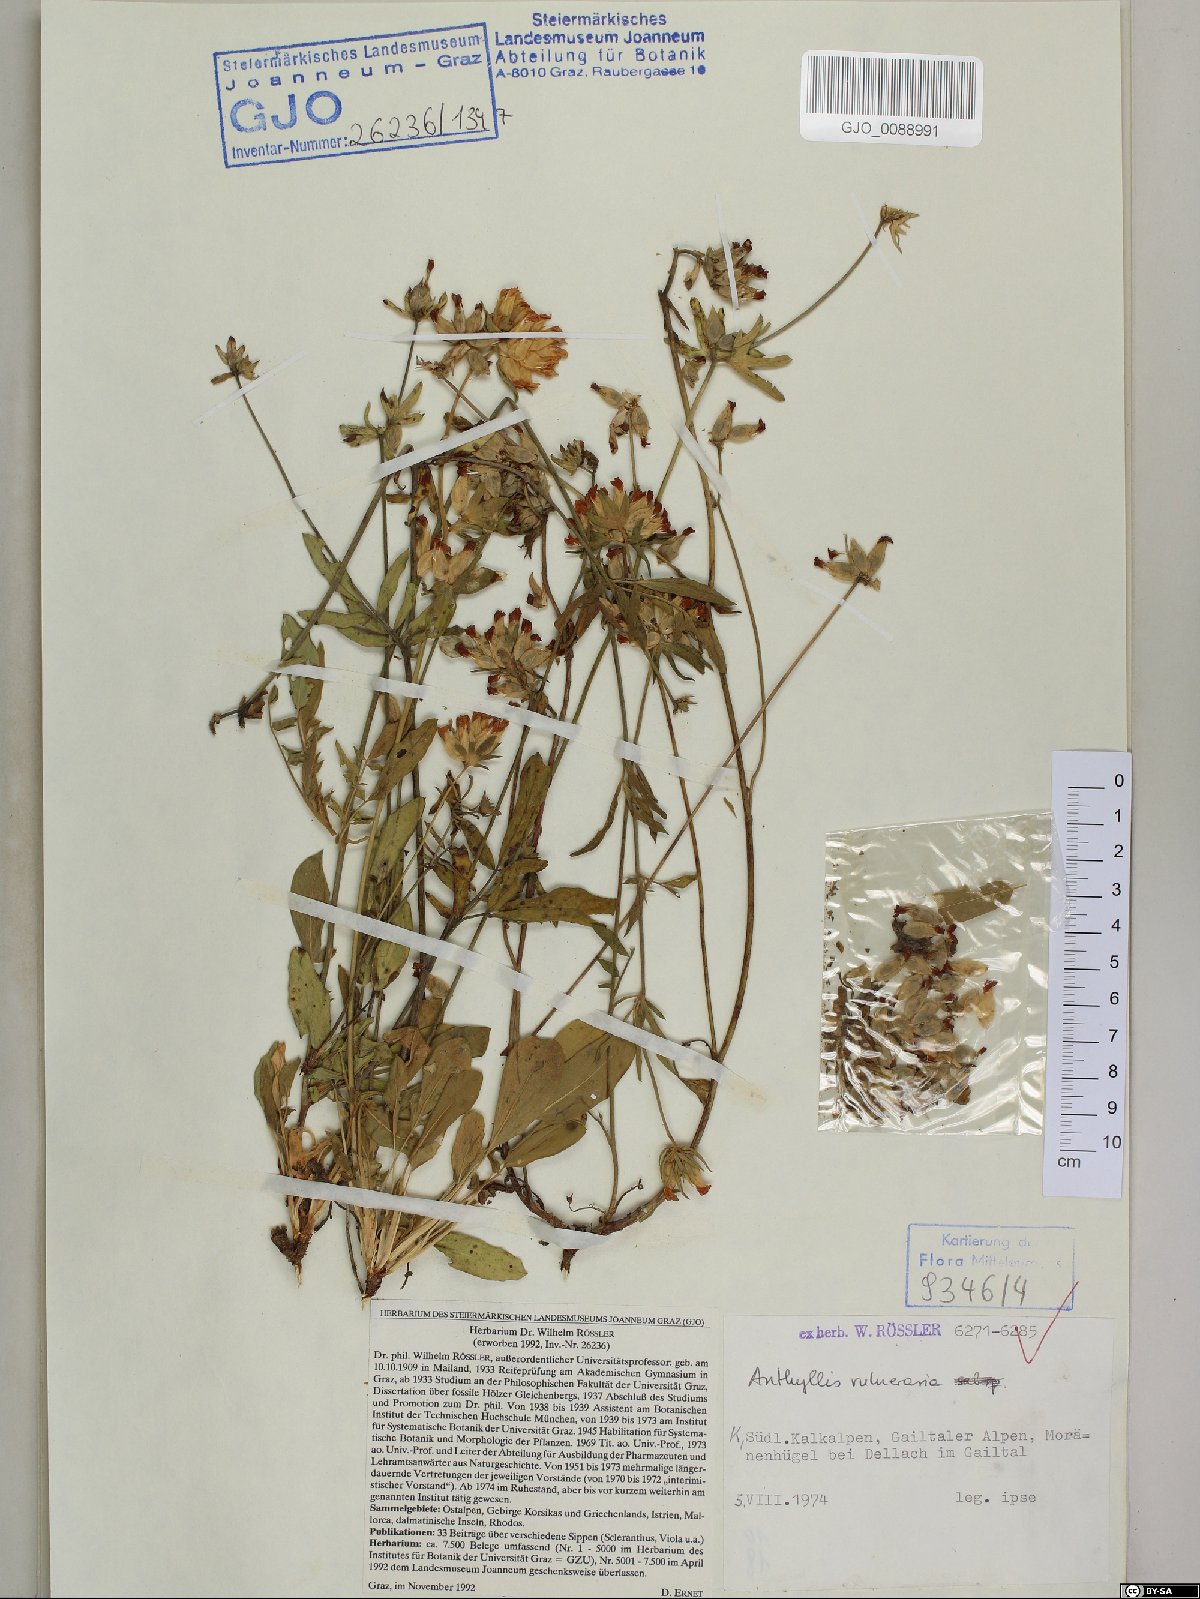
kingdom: Plantae
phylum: Tracheophyta
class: Magnoliopsida
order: Fabales
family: Fabaceae
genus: Anthyllis
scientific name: Anthyllis vulneraria
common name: Kidney vetch
